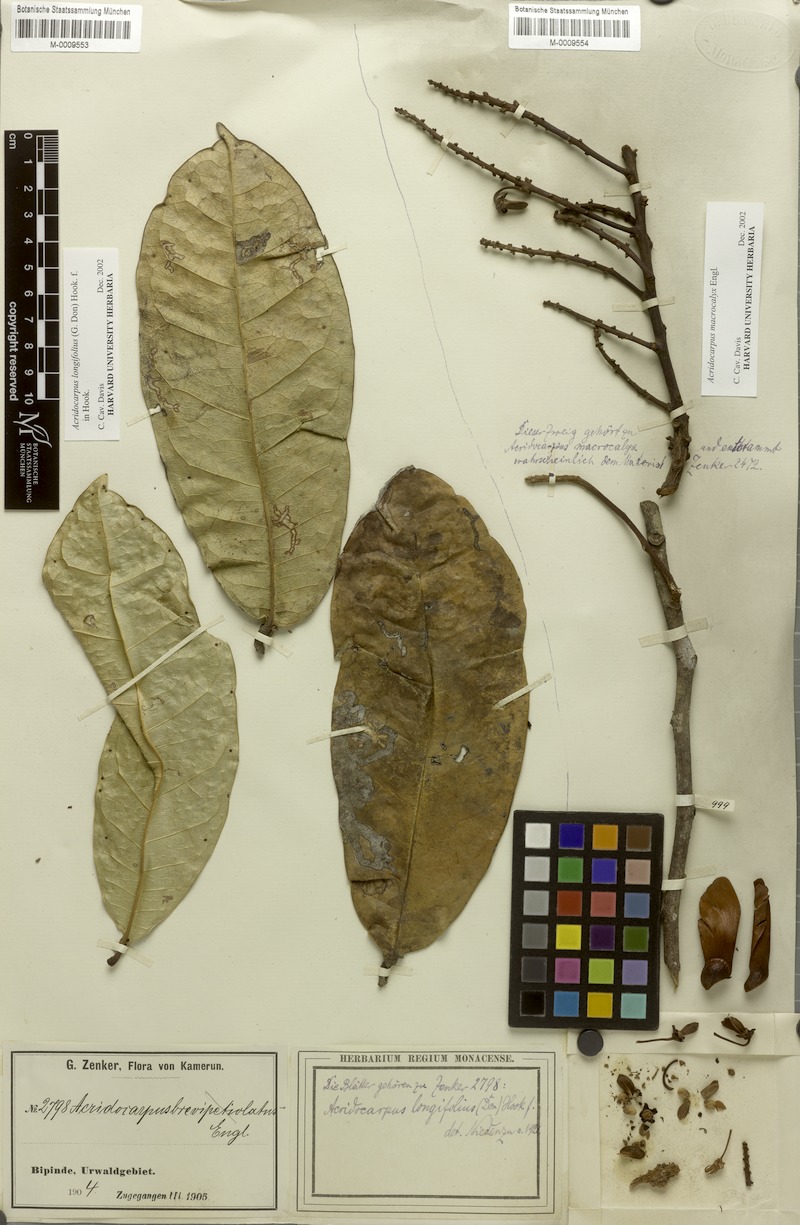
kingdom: Plantae
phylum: Tracheophyta
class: Magnoliopsida
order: Malpighiales
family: Malpighiaceae
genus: Acridocarpus
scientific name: Acridocarpus longifolius
